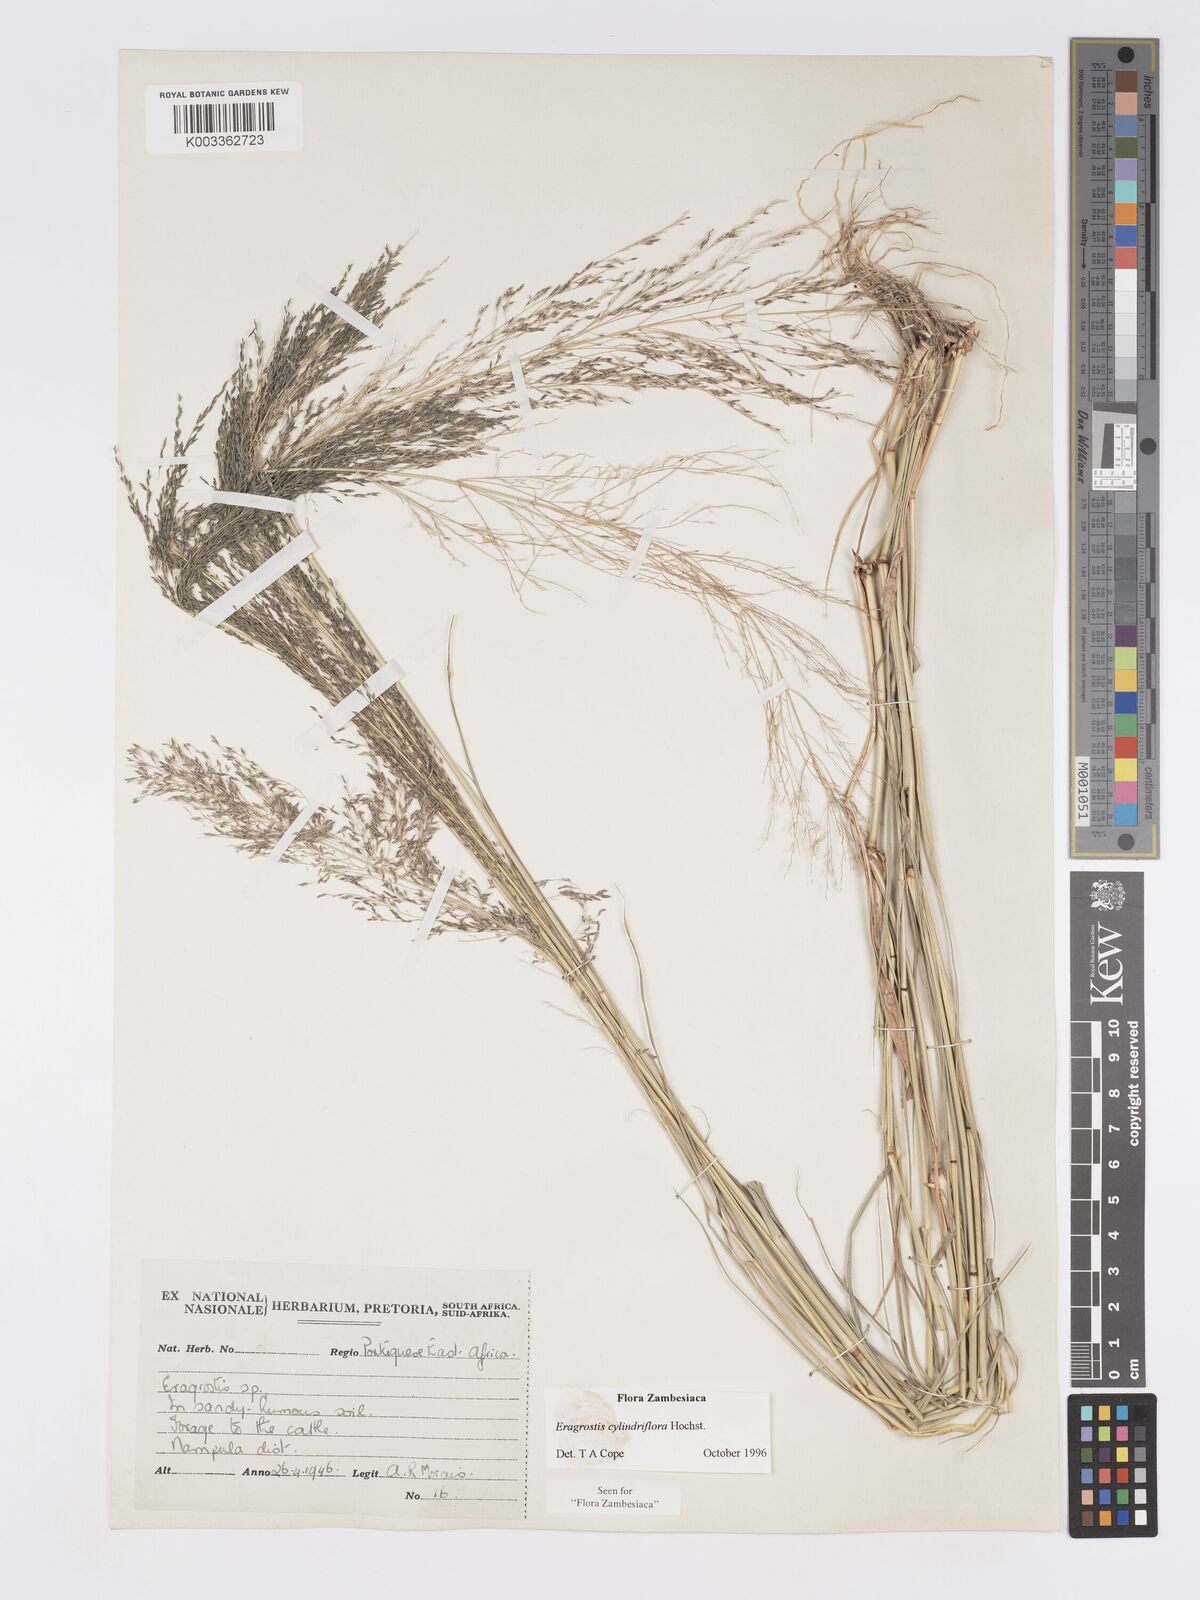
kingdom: Plantae
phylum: Tracheophyta
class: Liliopsida
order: Poales
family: Poaceae
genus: Eragrostis
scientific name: Eragrostis cylindriflora
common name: Cylinderflower lovegrass
